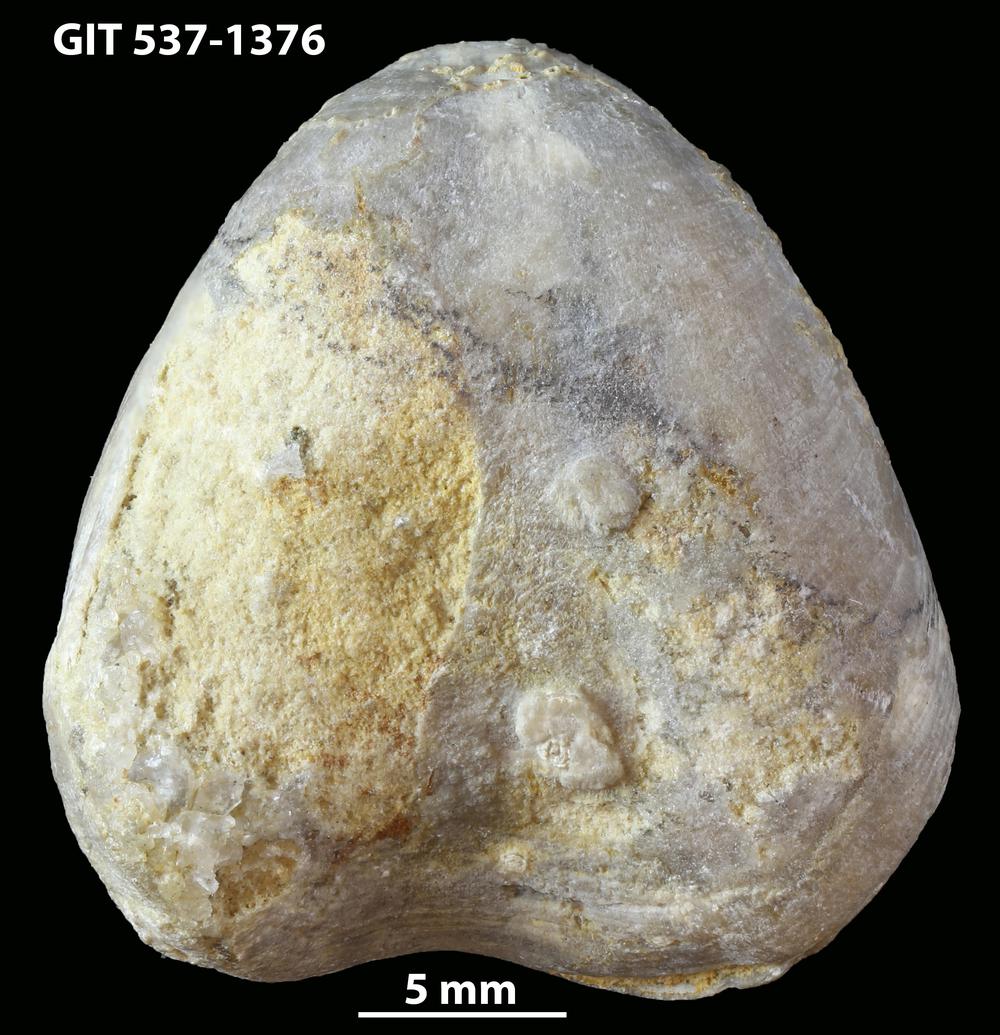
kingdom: Animalia
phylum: Brachiopoda
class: Rhynchonellata
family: Porambonitidae
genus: Porambonites
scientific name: Porambonites
